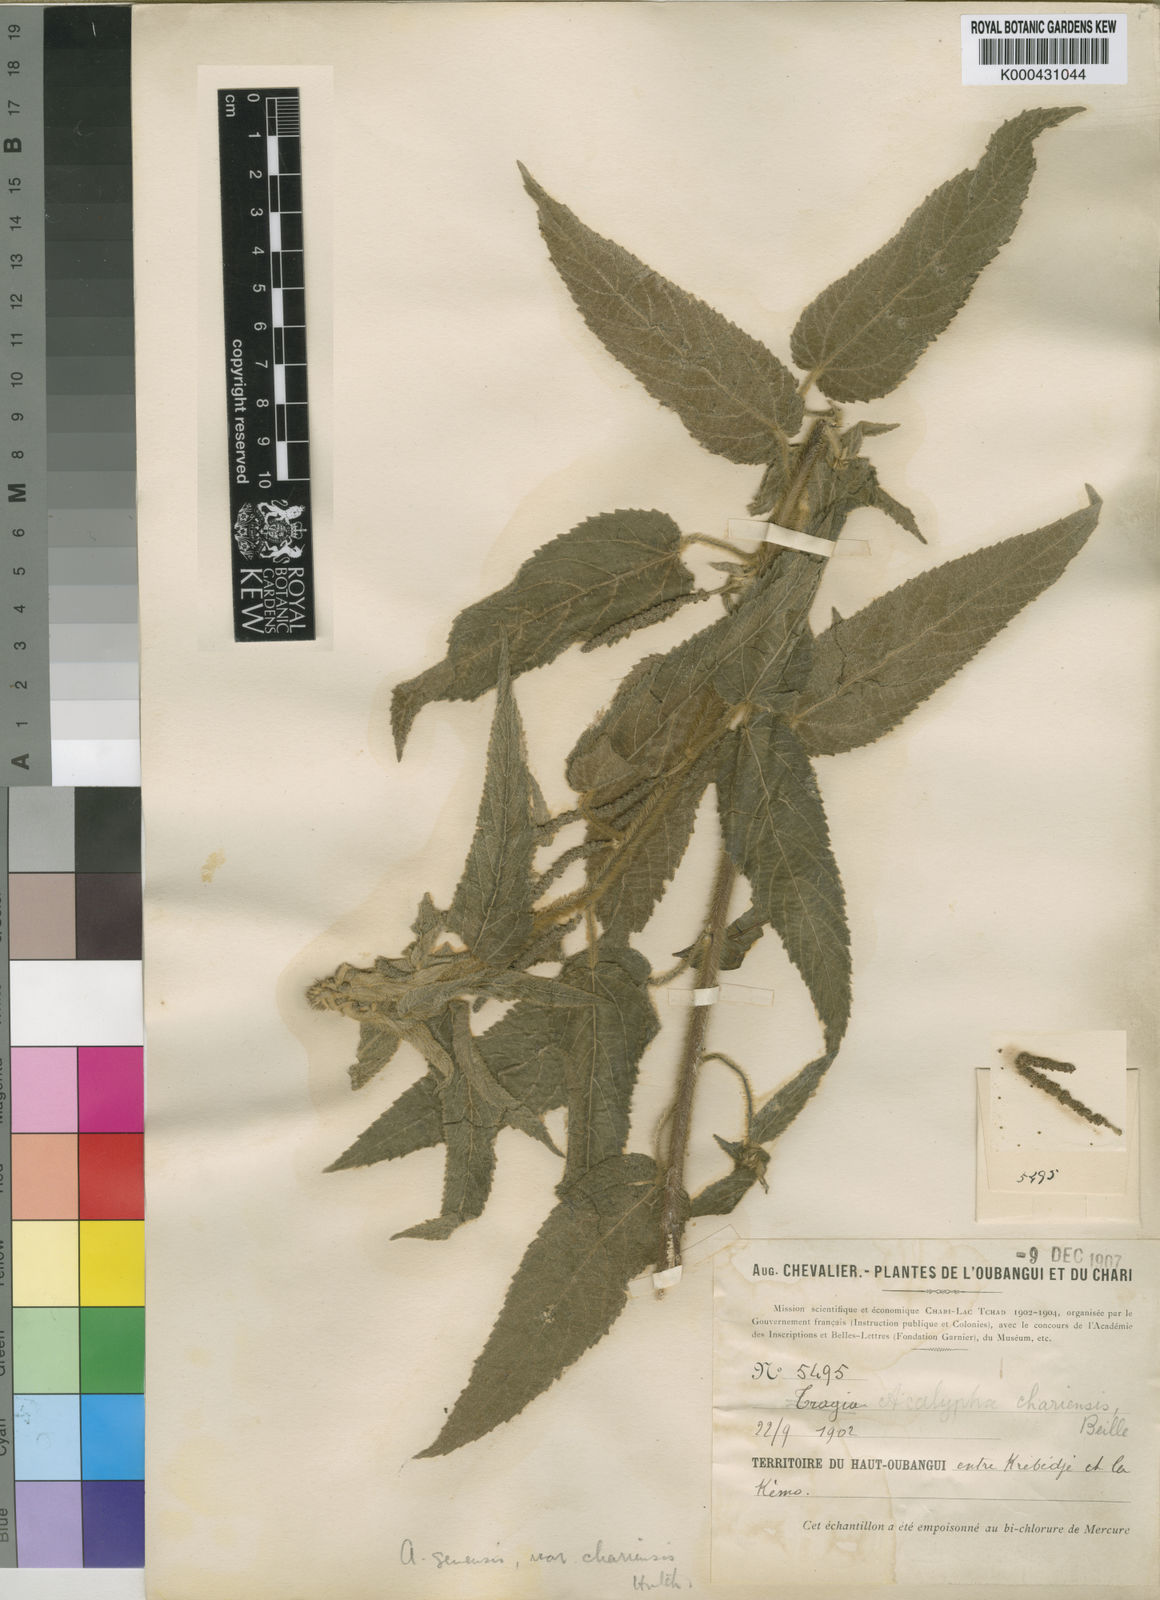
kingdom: Plantae
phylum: Tracheophyta
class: Magnoliopsida
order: Malpighiales
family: Euphorbiaceae
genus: Acalypha
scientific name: Acalypha petiolaris
